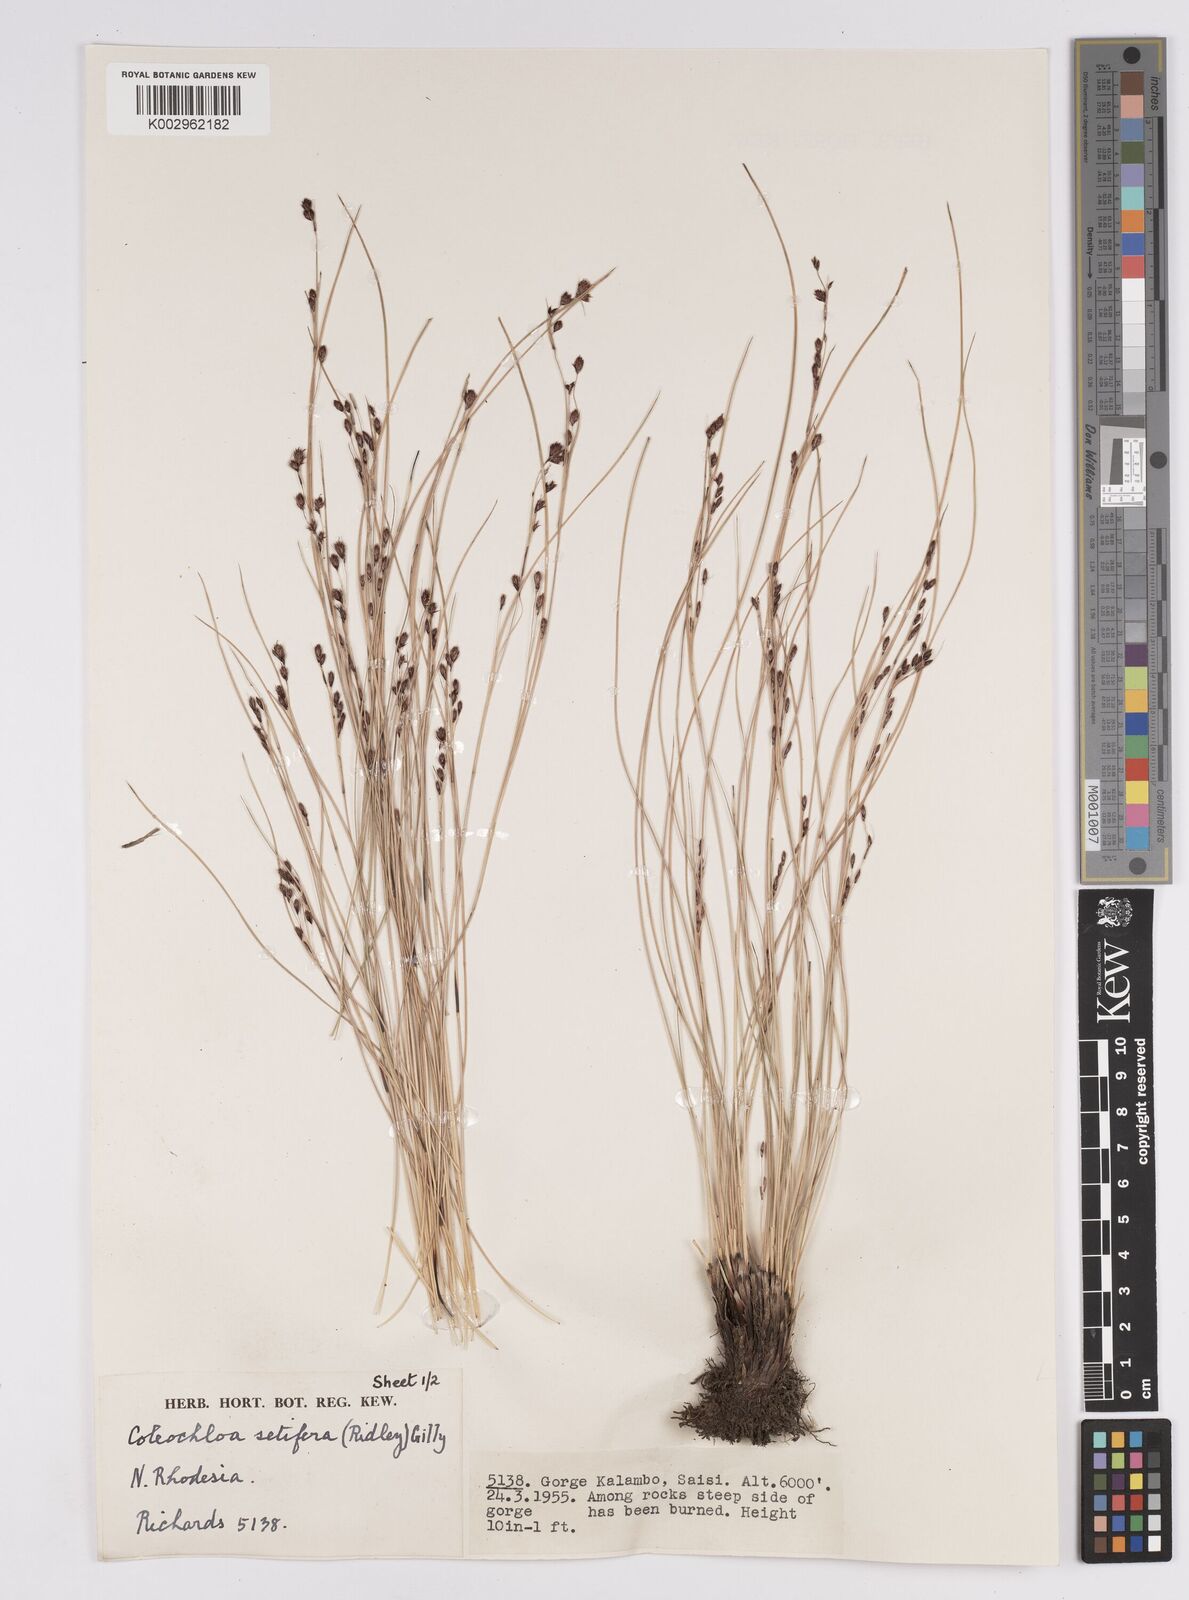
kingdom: Plantae
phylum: Tracheophyta
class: Liliopsida
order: Poales
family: Cyperaceae
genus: Coleochloa
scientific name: Coleochloa setifera
